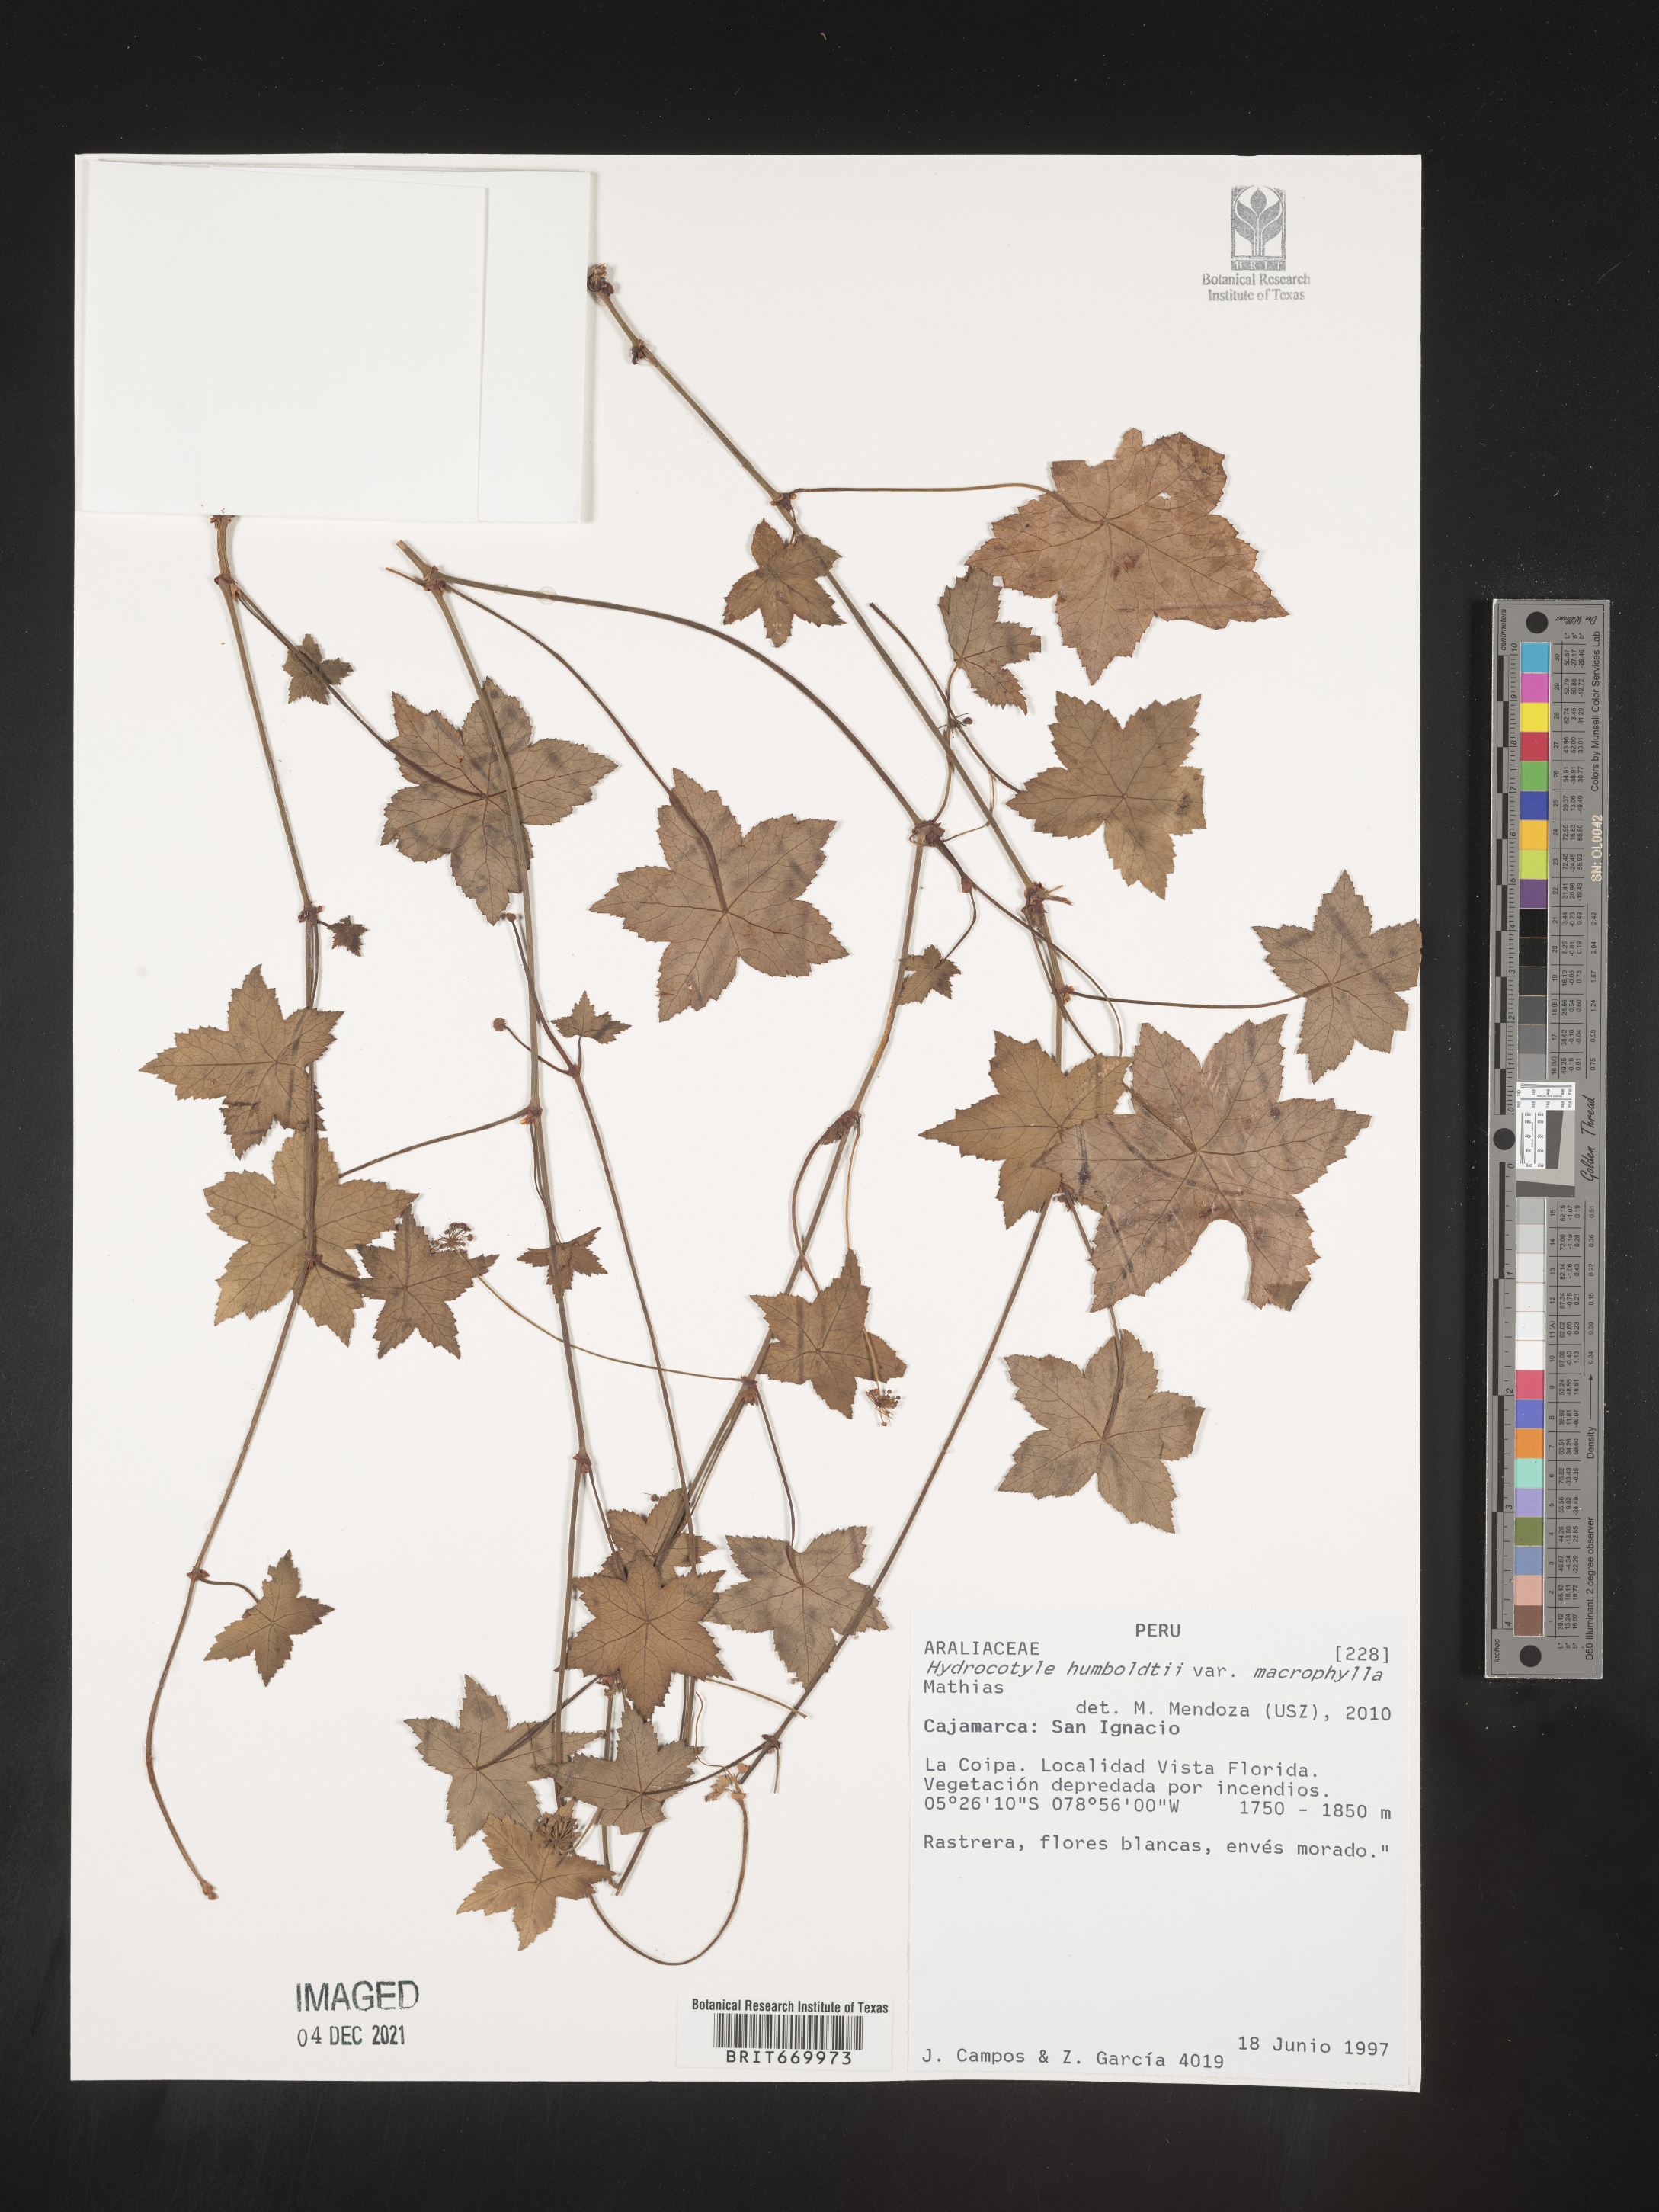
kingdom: Plantae
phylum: Tracheophyta
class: Magnoliopsida
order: Apiales
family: Araliaceae
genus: Hydrocotyle
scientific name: Hydrocotyle
